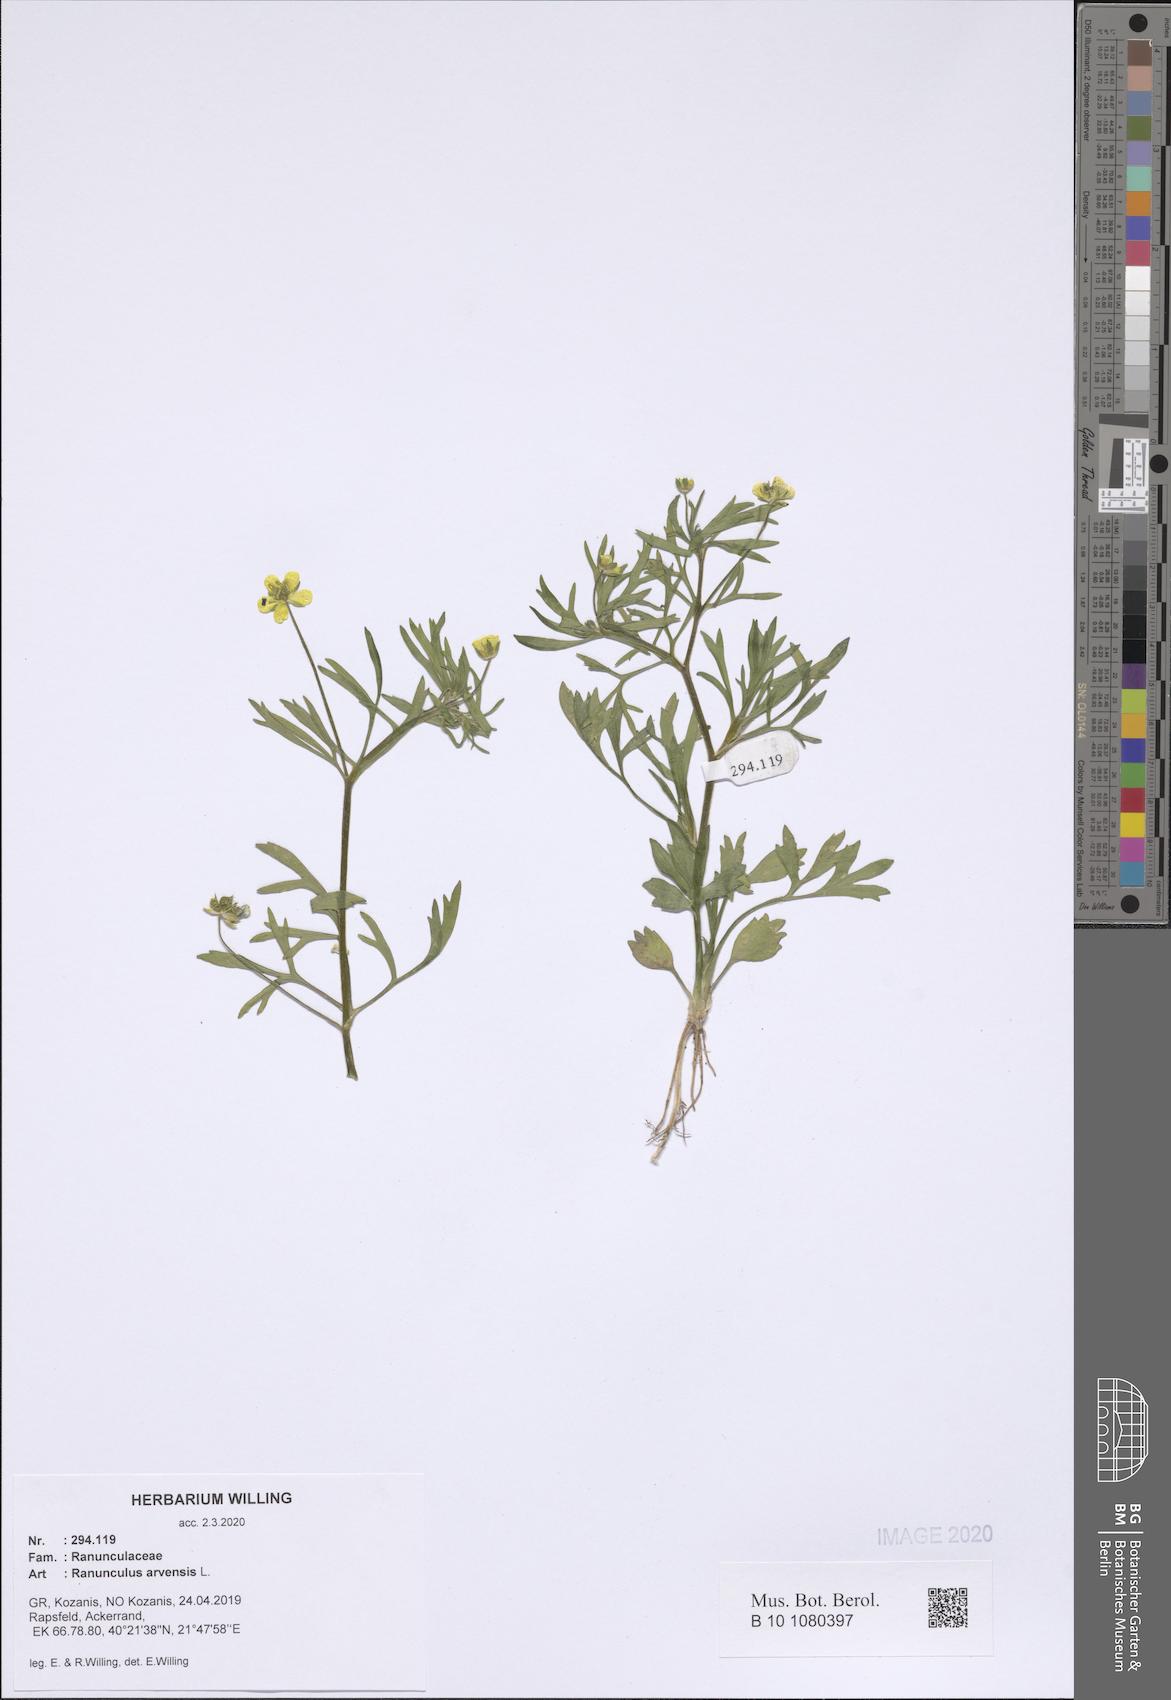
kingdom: Plantae
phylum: Tracheophyta
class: Magnoliopsida
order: Ranunculales
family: Ranunculaceae
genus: Ranunculus
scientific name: Ranunculus arvensis
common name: Corn buttercup
